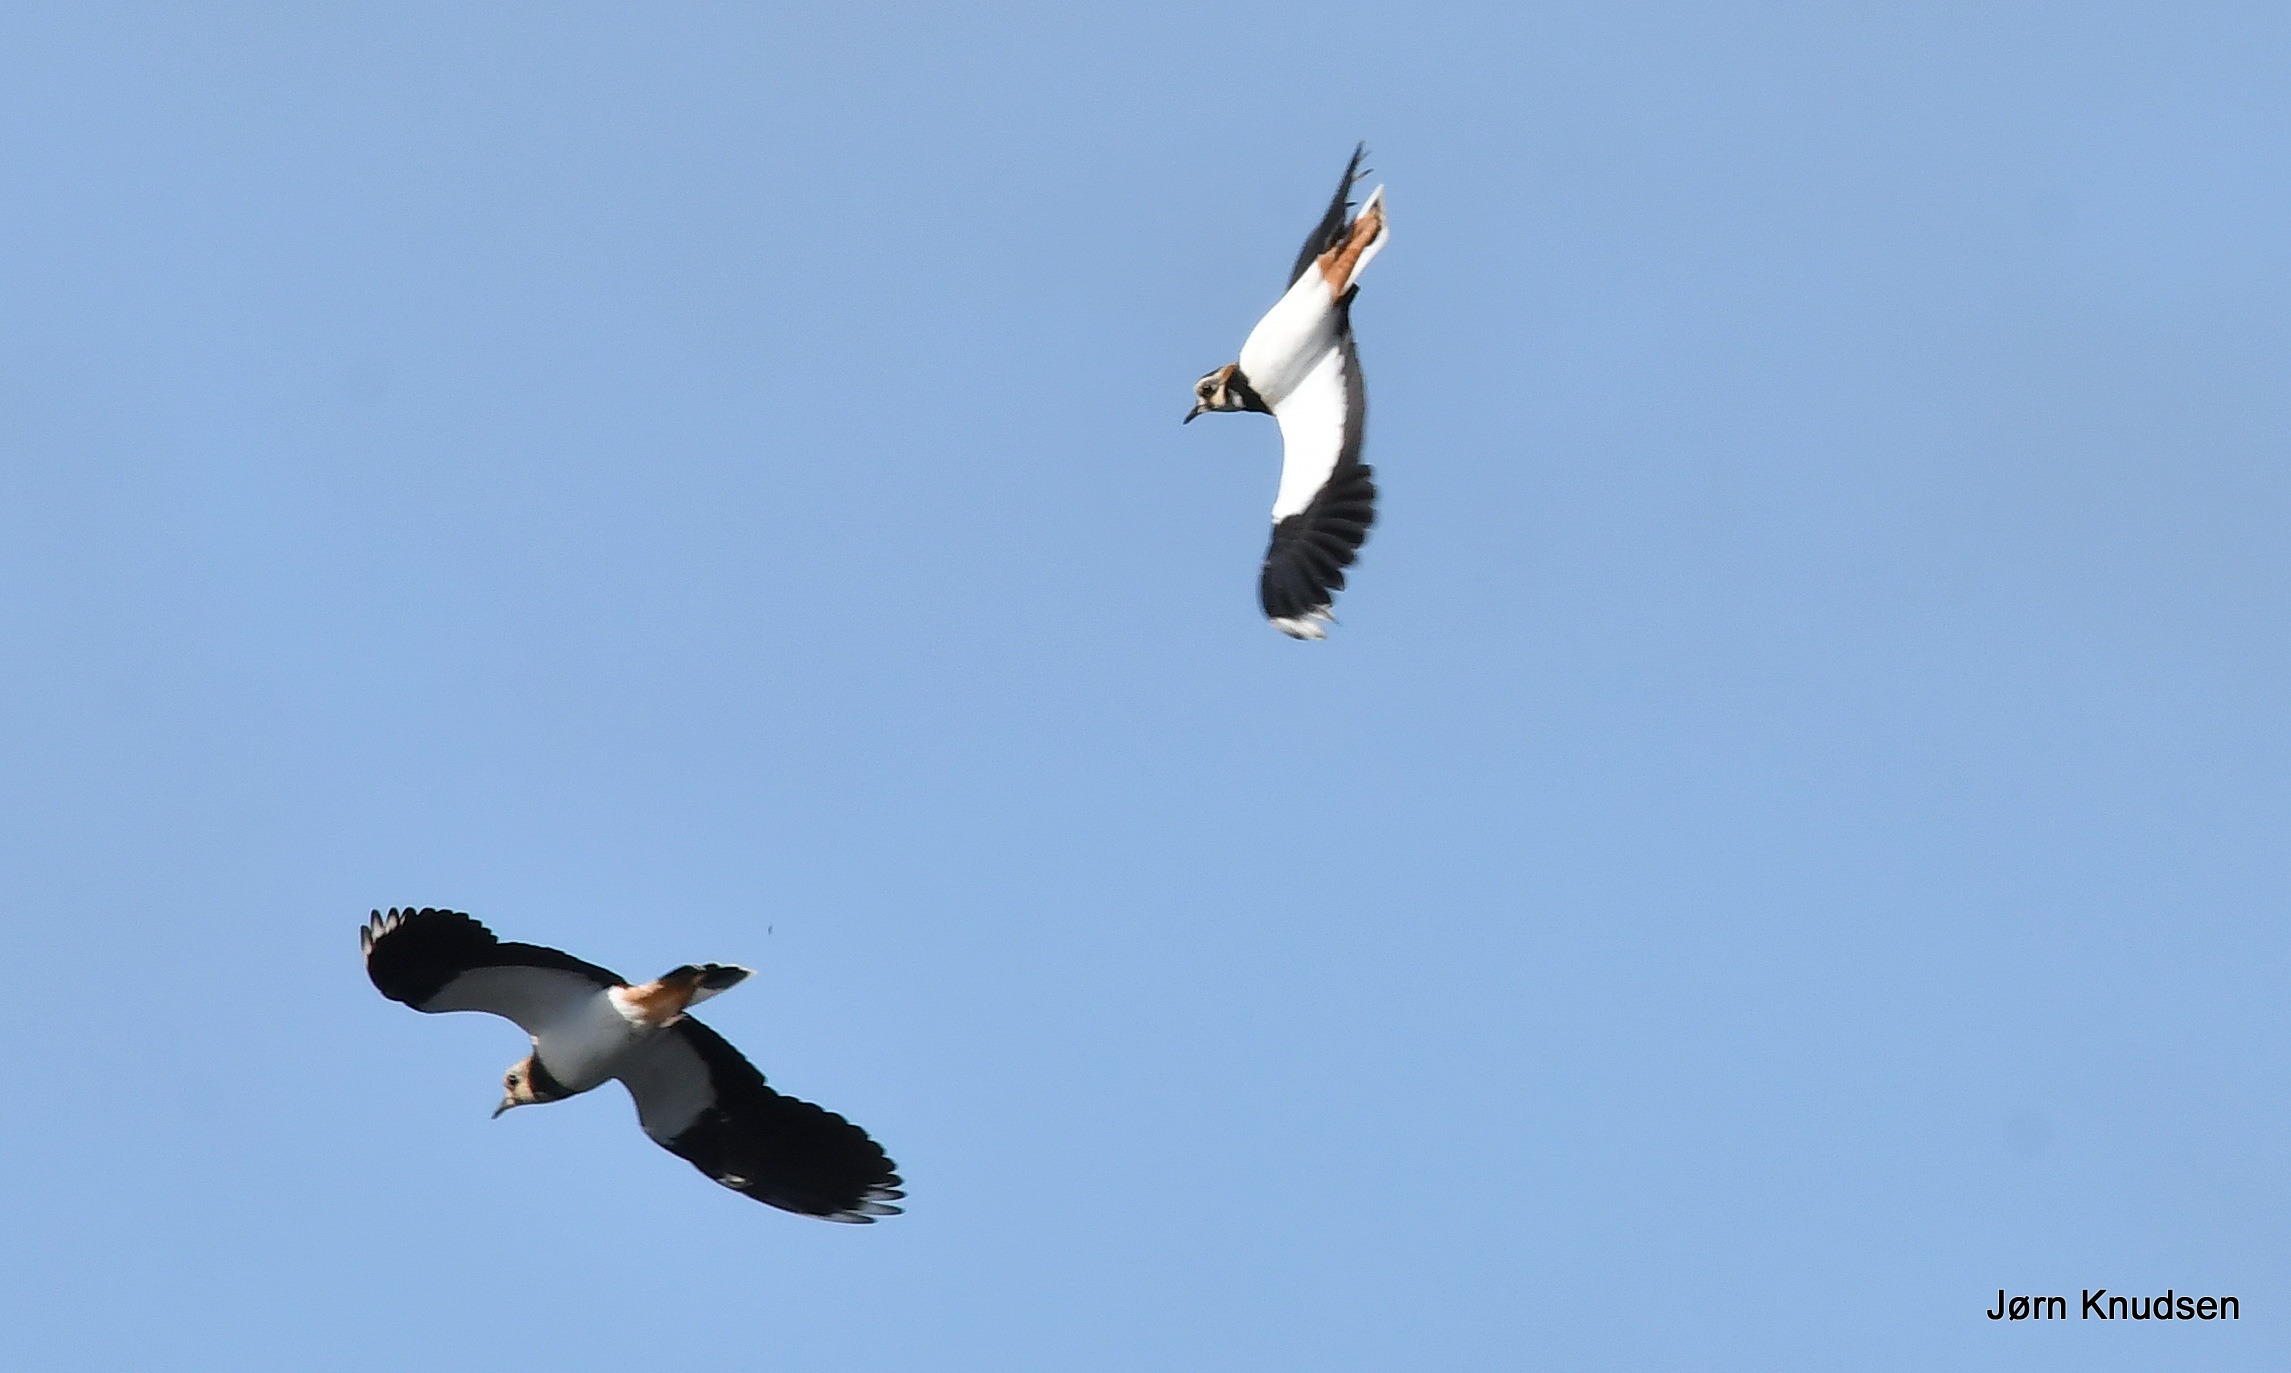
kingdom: Animalia
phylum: Chordata
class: Aves
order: Charadriiformes
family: Charadriidae
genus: Vanellus
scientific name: Vanellus vanellus
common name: Vibe
